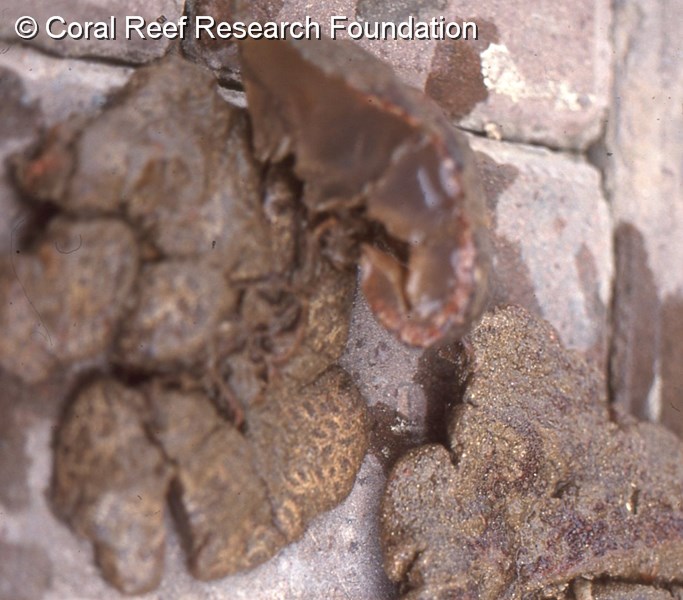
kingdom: Animalia
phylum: Chordata
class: Ascidiacea
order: Stolidobranchia
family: Styelidae
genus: Botryllus
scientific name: Botryllus mortenseni
